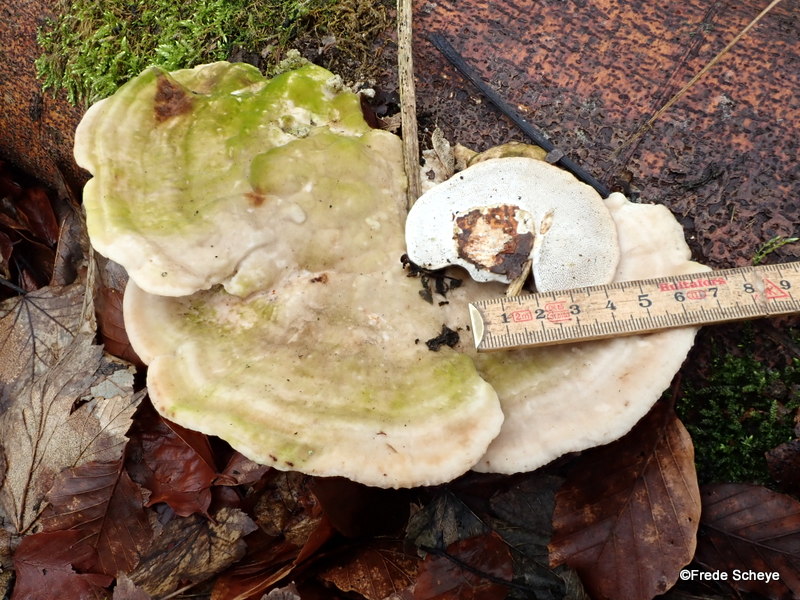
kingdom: Fungi
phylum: Basidiomycota
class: Agaricomycetes
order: Polyporales
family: Polyporaceae
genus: Trametes
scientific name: Trametes gibbosa
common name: puklet læderporesvamp
